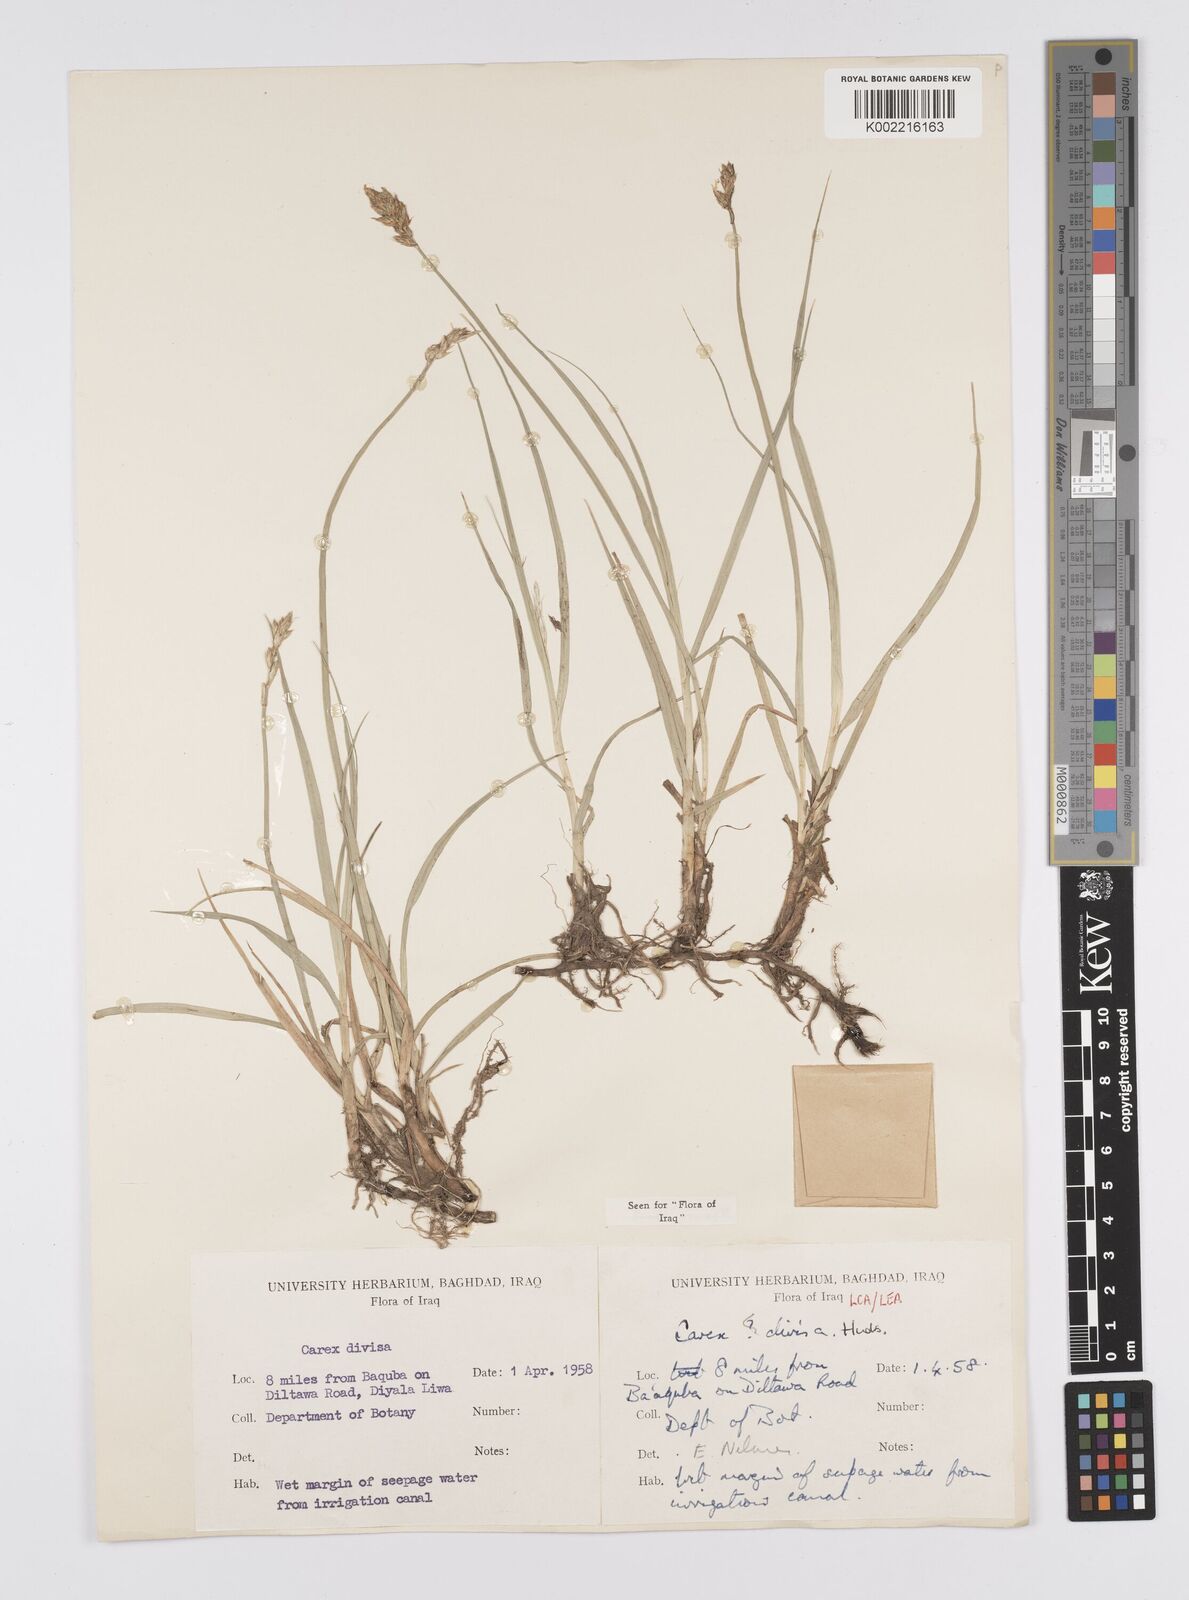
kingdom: Plantae
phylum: Tracheophyta
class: Liliopsida
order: Poales
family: Cyperaceae
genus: Carex
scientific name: Carex divisa
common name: Divided sedge
